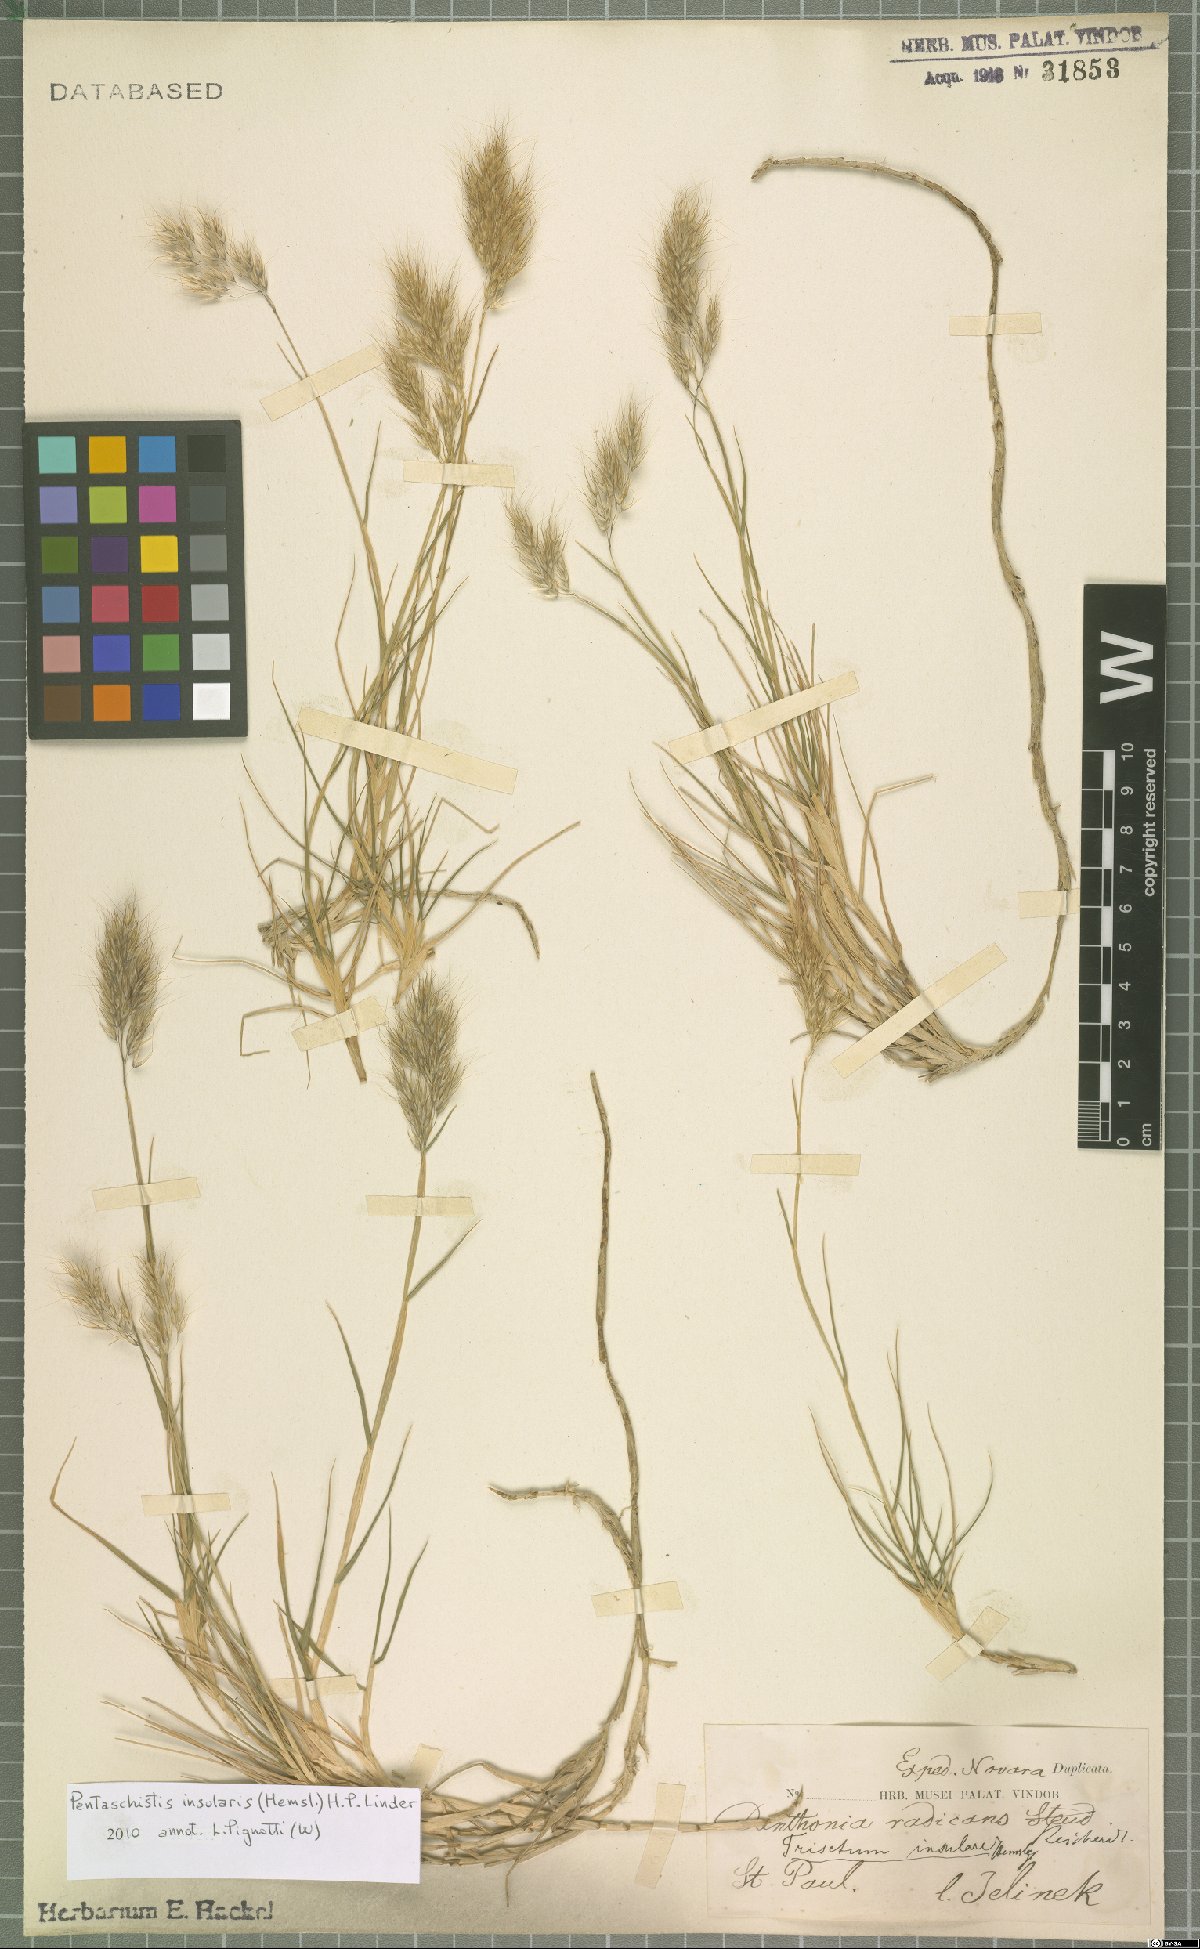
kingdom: Plantae
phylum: Tracheophyta
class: Liliopsida
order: Poales
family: Poaceae
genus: Pentameris
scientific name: Pentameris insularis
